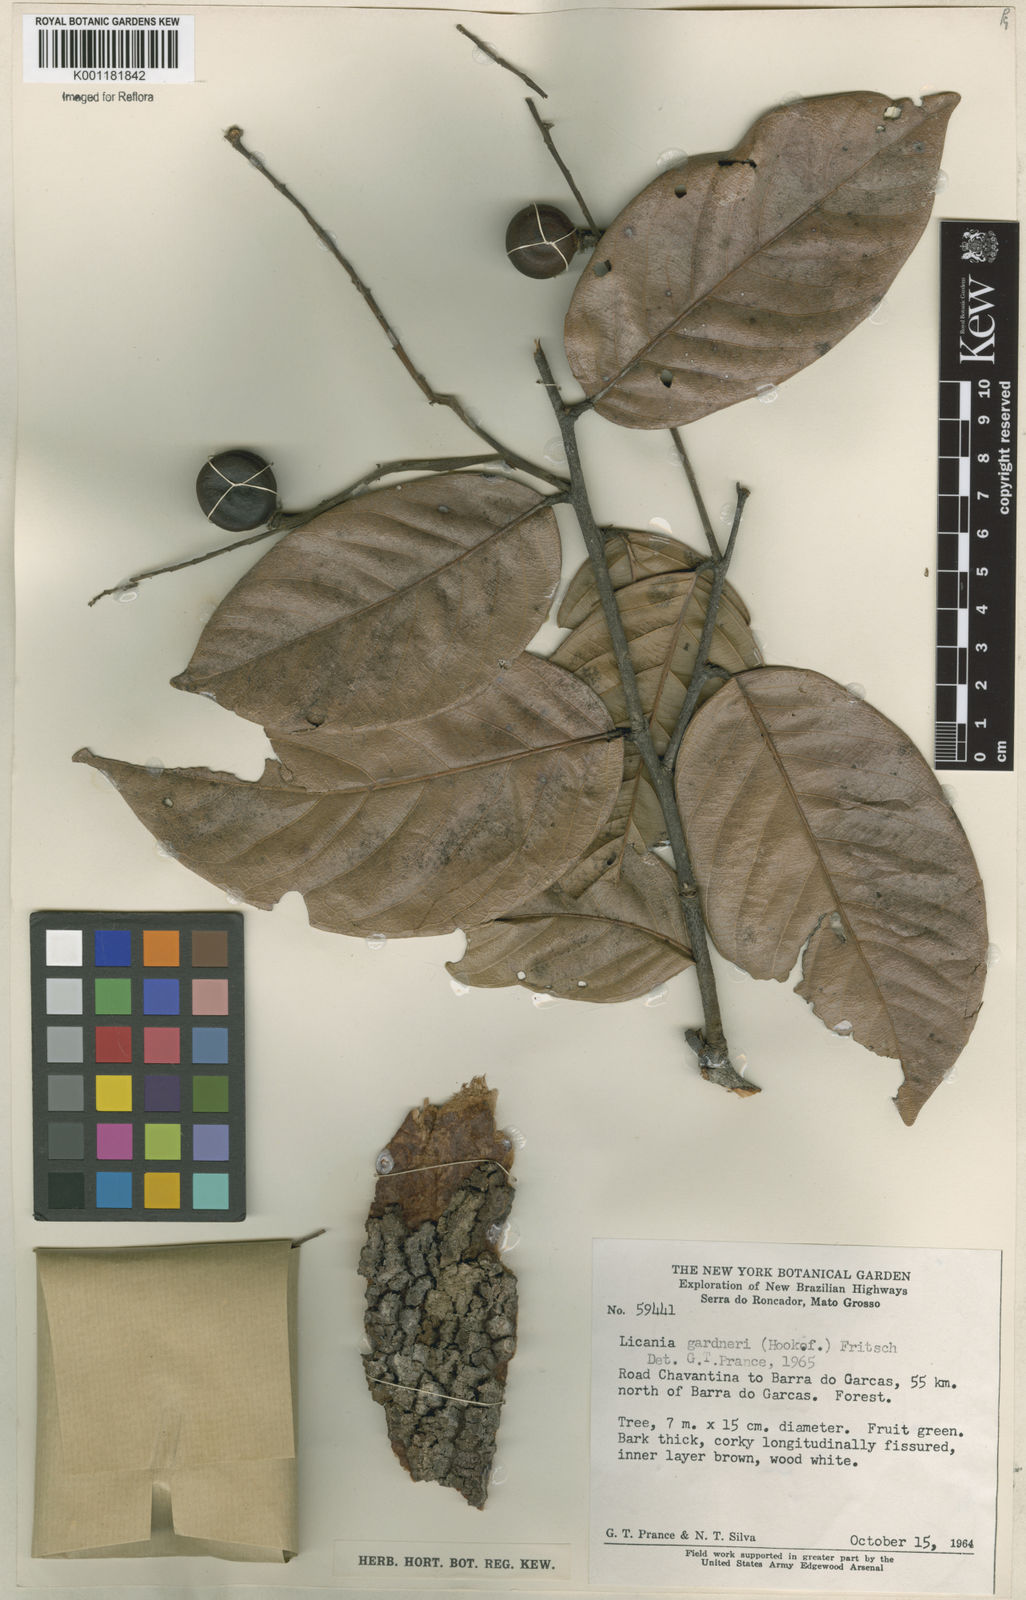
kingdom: Plantae
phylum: Tracheophyta
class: Magnoliopsida
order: Malpighiales
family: Chrysobalanaceae
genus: Leptobalanus
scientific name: Leptobalanus gardneri
